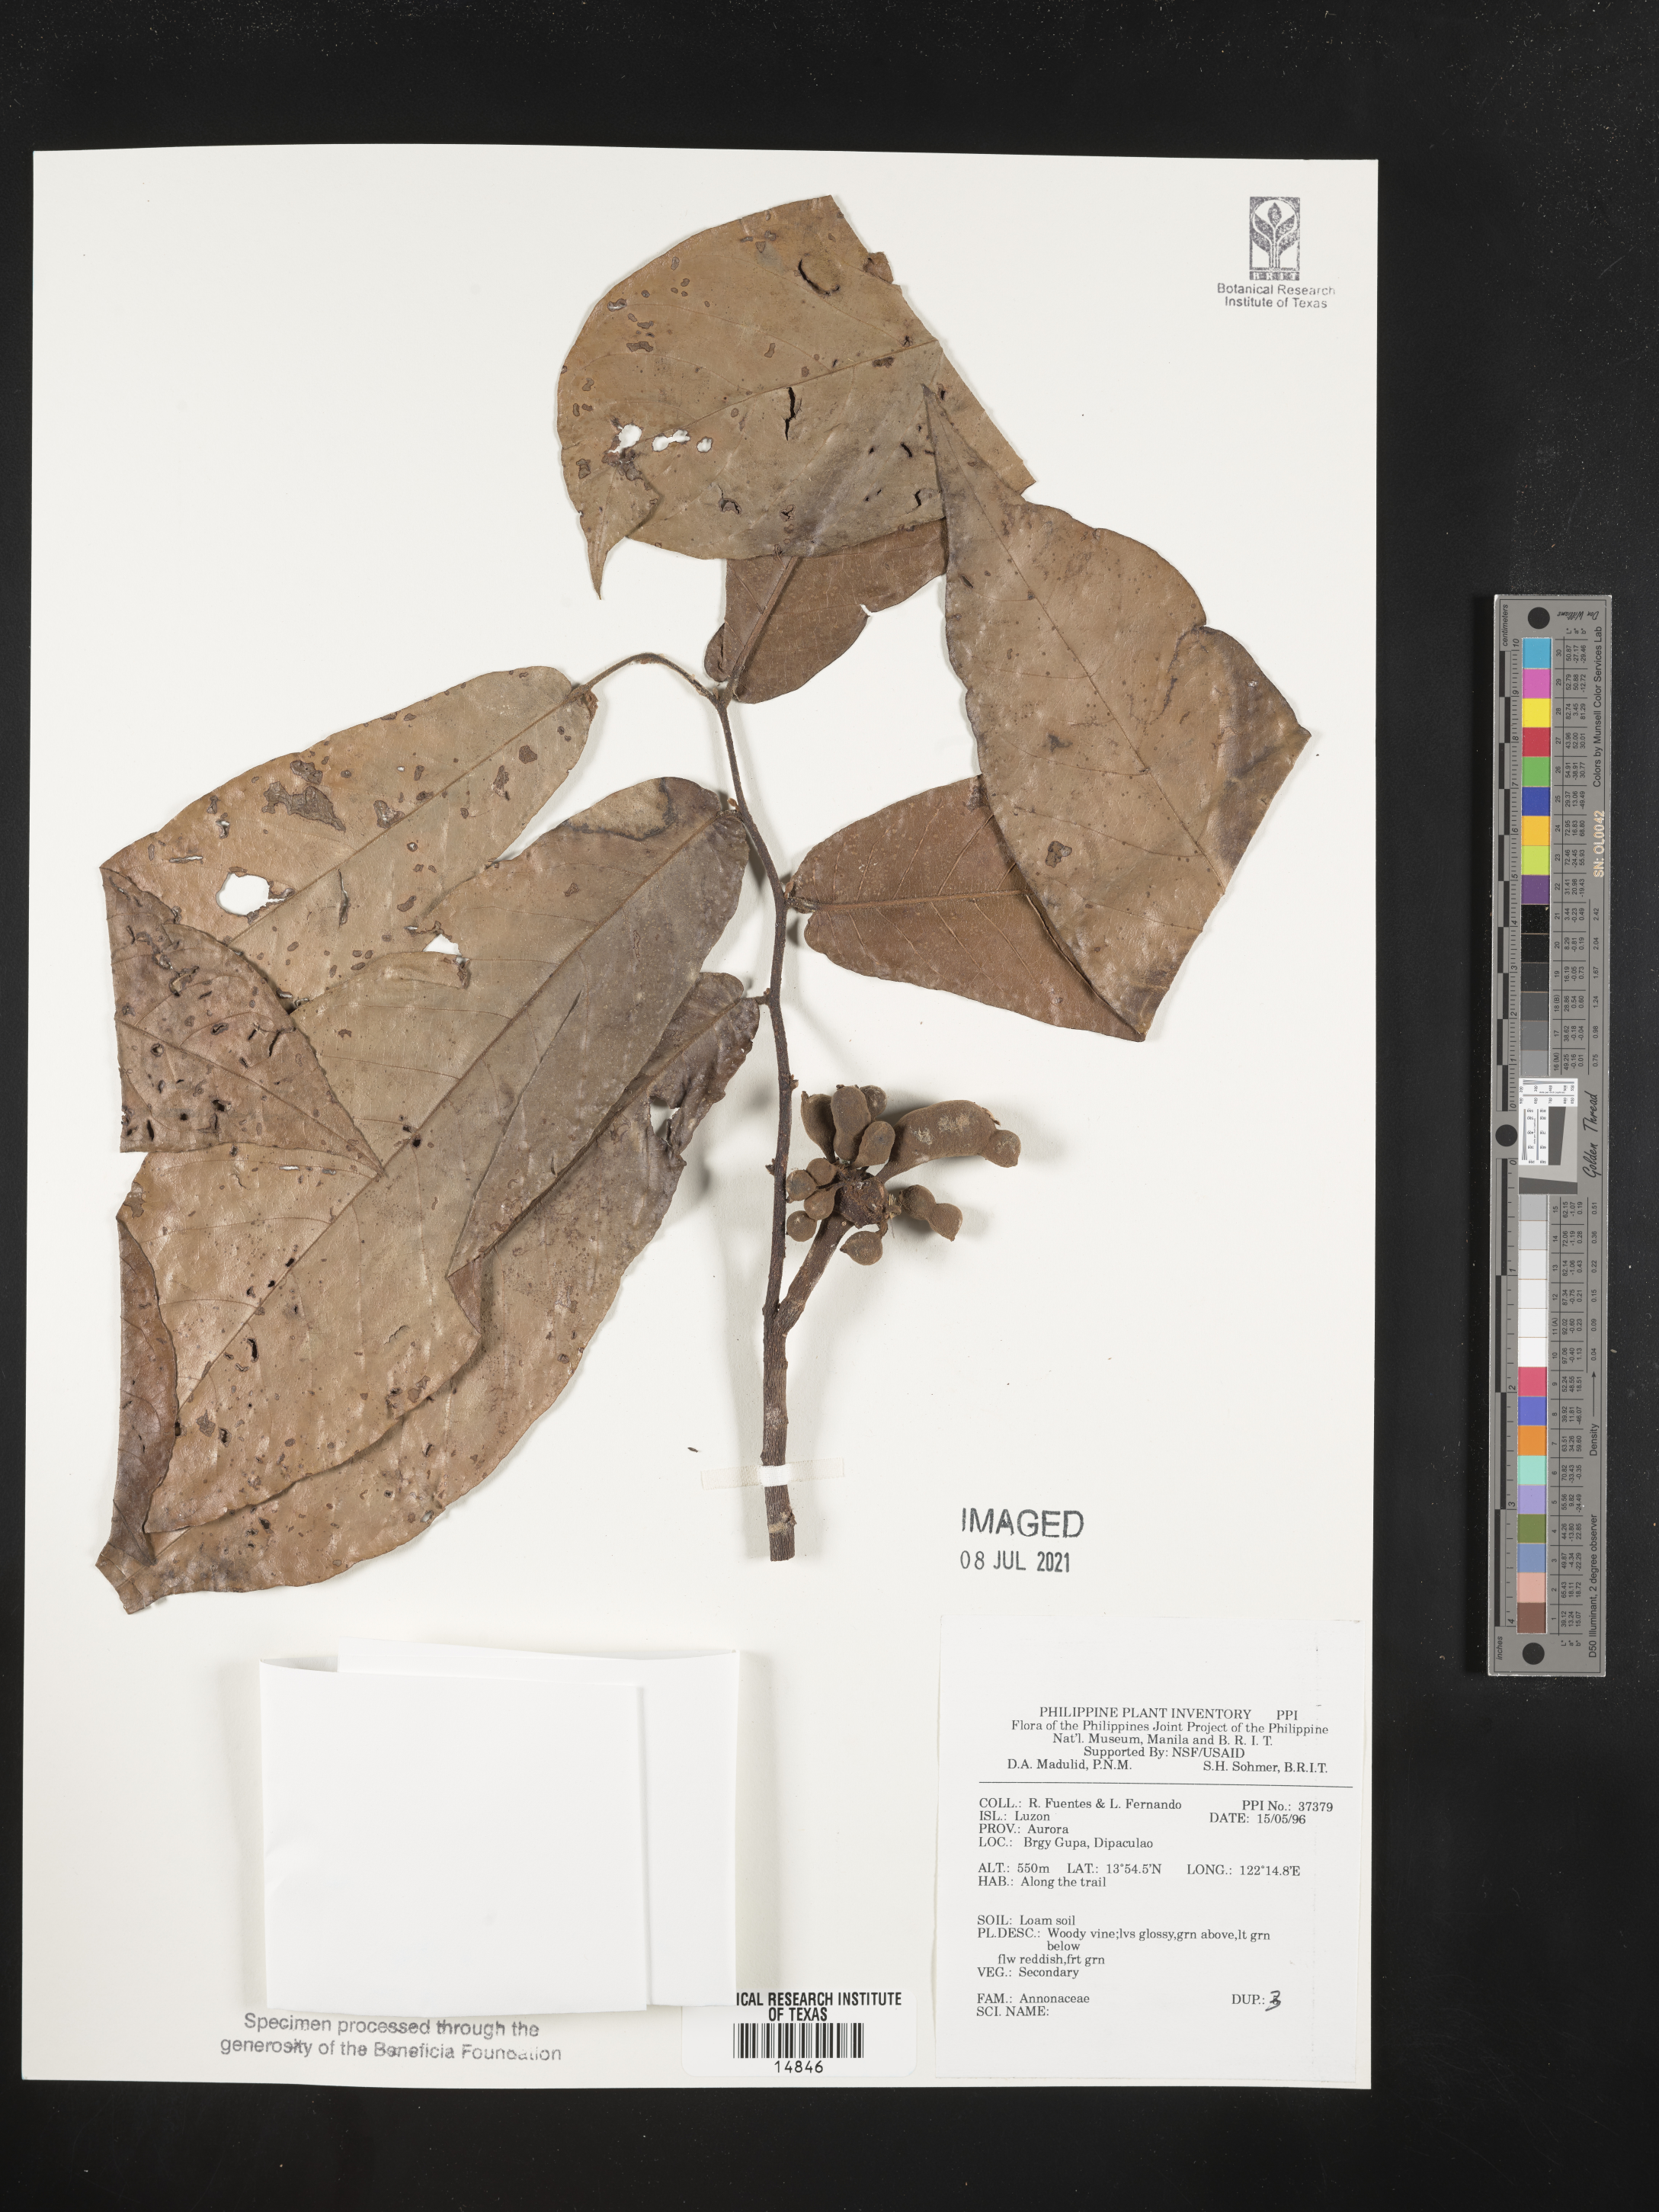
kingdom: Plantae
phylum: Tracheophyta
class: Magnoliopsida
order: Magnoliales
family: Annonaceae
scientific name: Annonaceae
